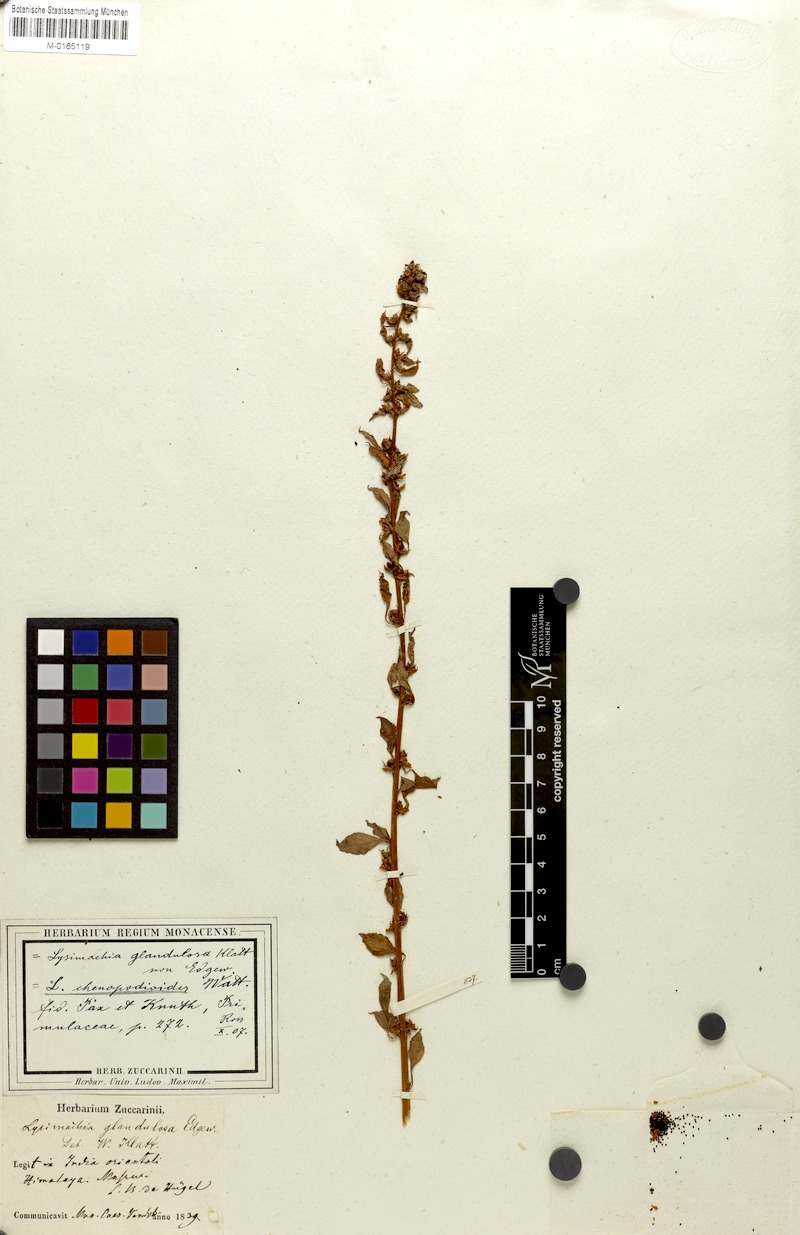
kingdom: Plantae
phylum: Tracheophyta
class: Magnoliopsida
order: Ericales
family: Primulaceae
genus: Lysimachia
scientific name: Lysimachia chenopodioides
